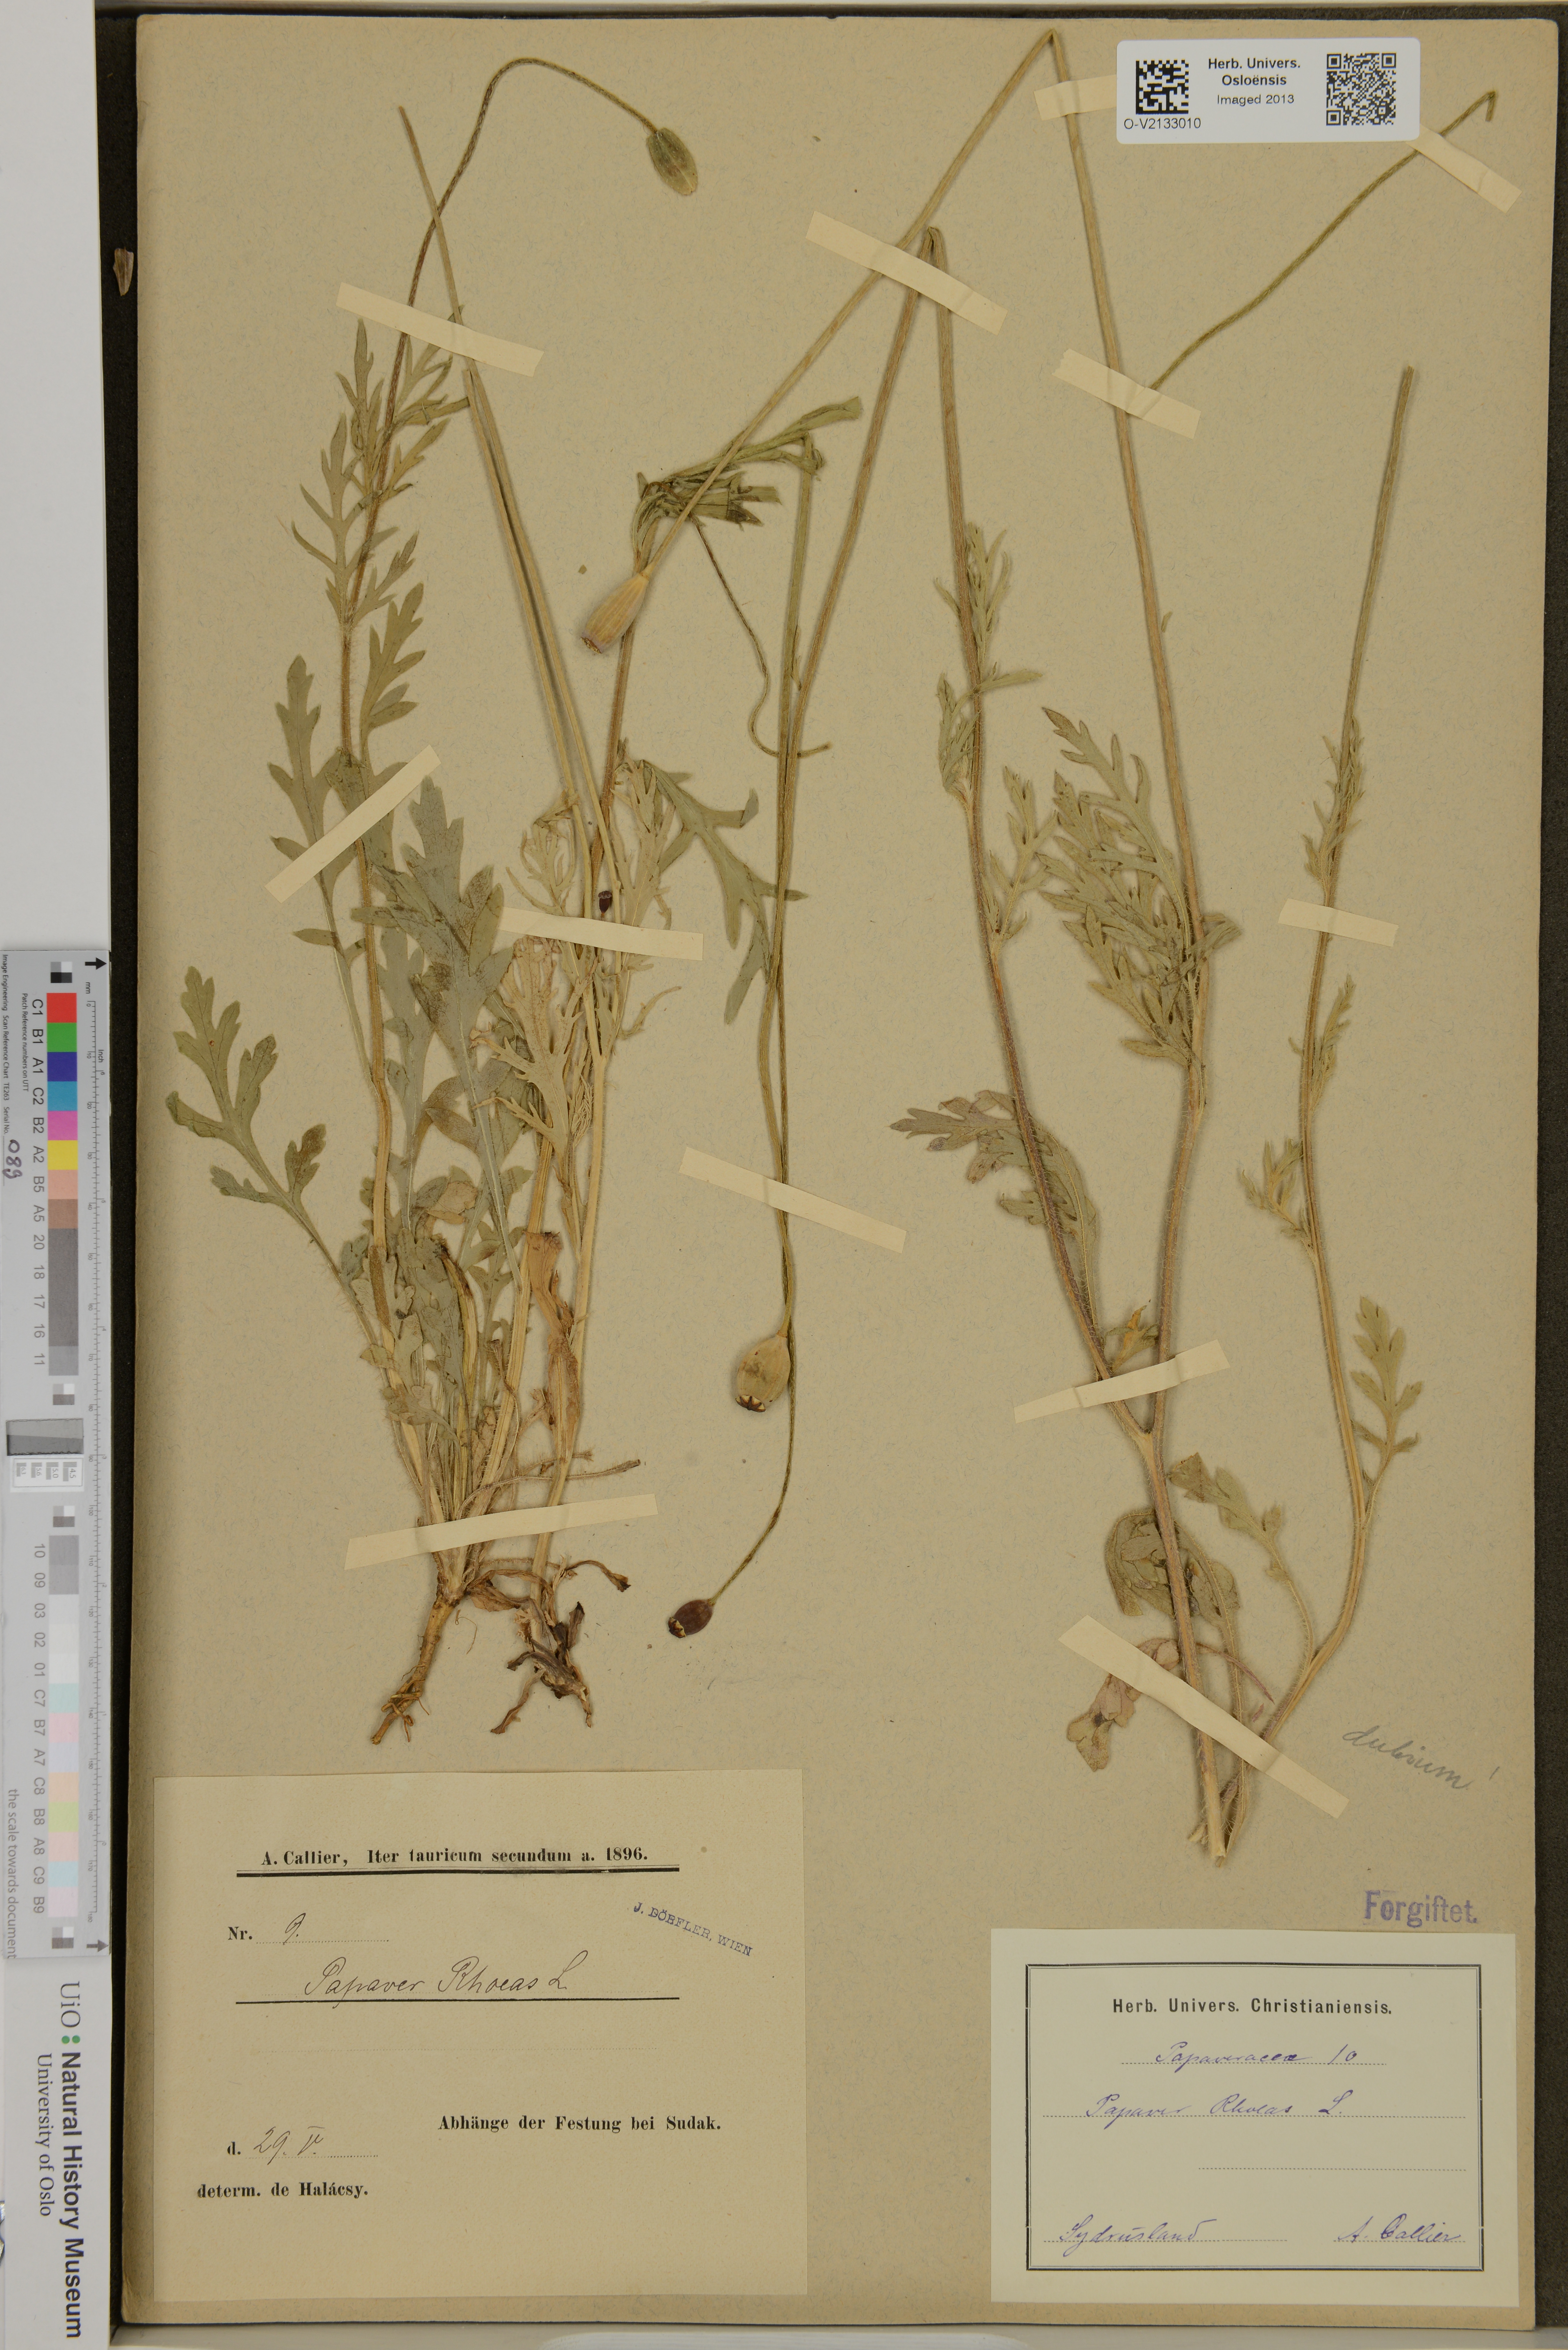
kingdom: Plantae
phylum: Tracheophyta
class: Magnoliopsida
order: Ranunculales
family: Papaveraceae
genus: Papaver
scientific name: Papaver rhoeas
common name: Corn poppy
